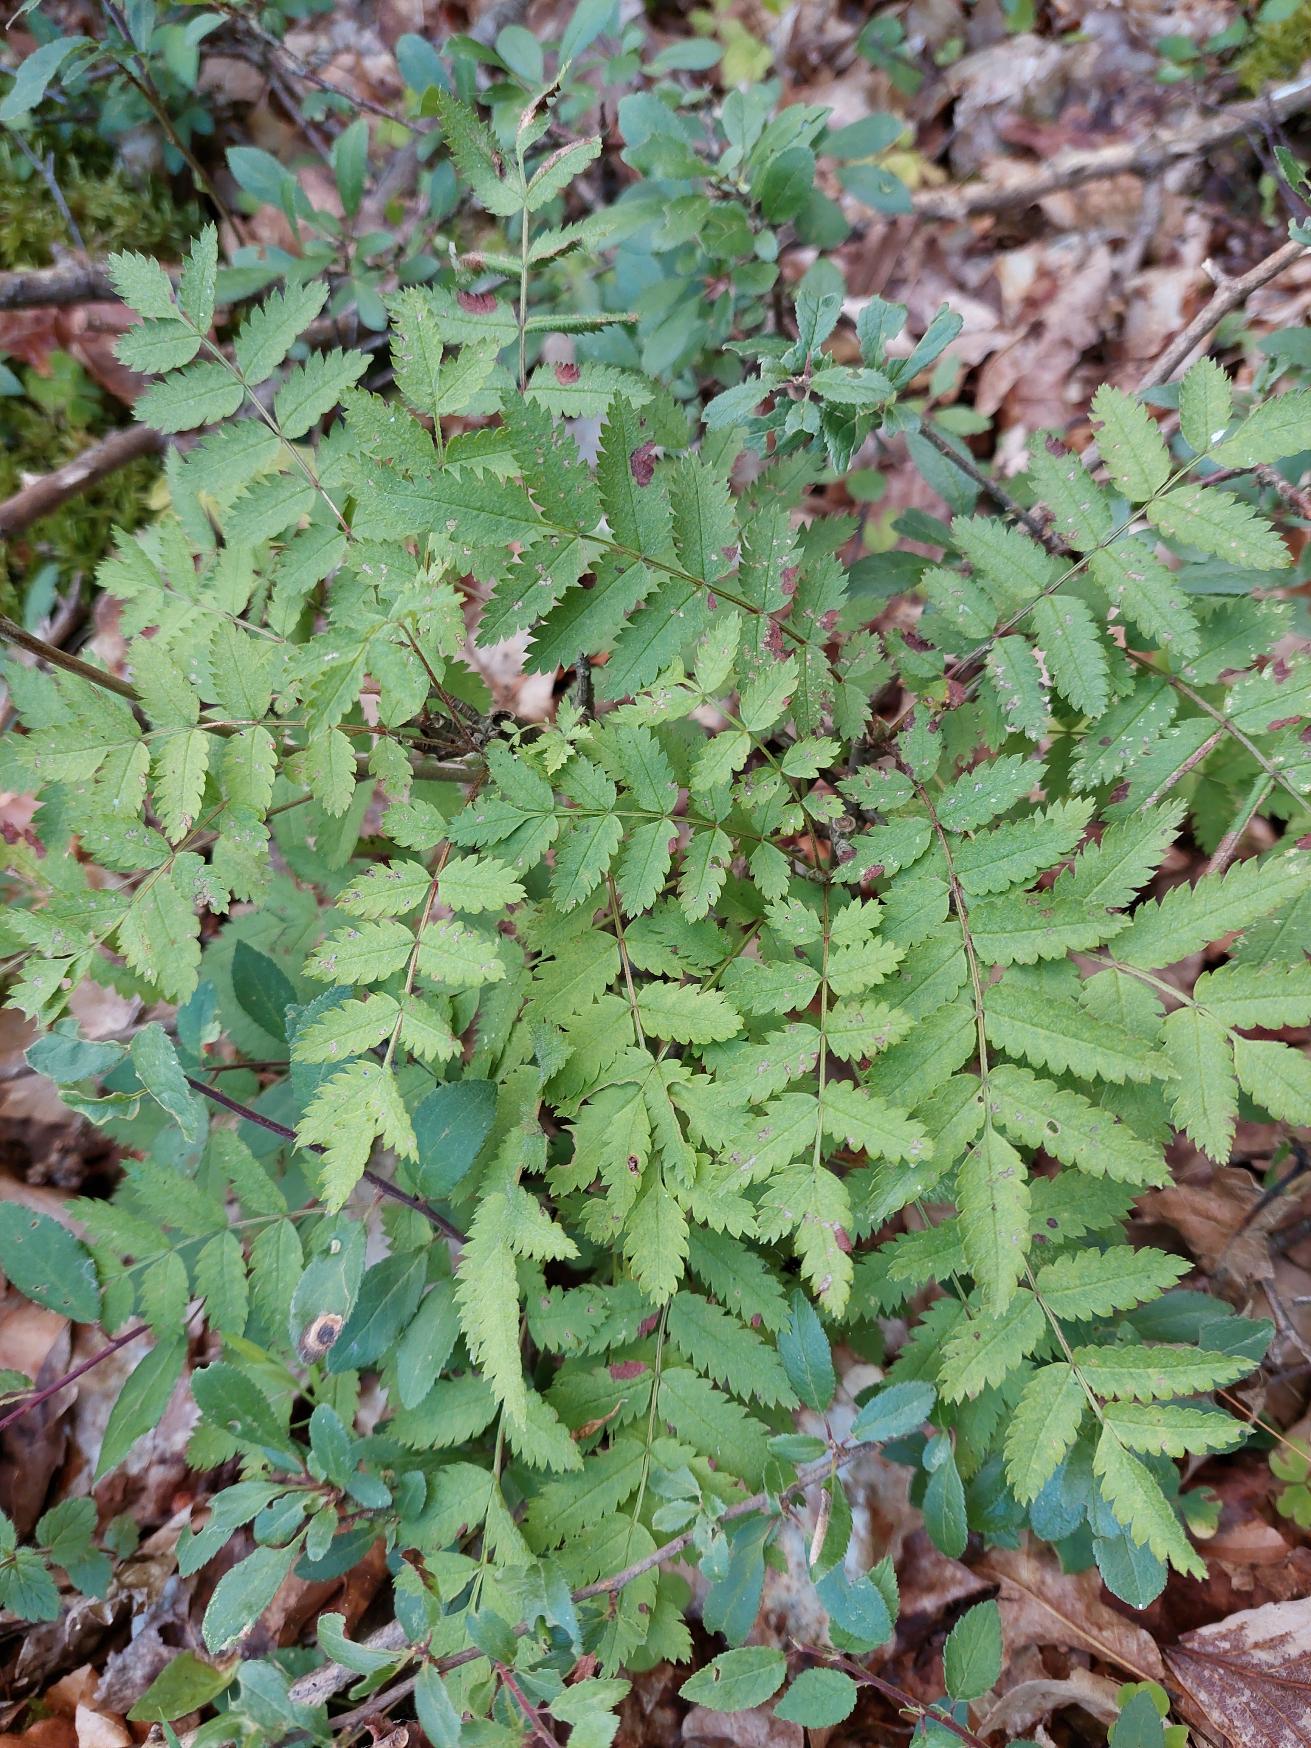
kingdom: Plantae
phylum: Tracheophyta
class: Magnoliopsida
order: Rosales
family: Rosaceae
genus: Sorbus
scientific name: Sorbus aucuparia
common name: Almindelig røn
